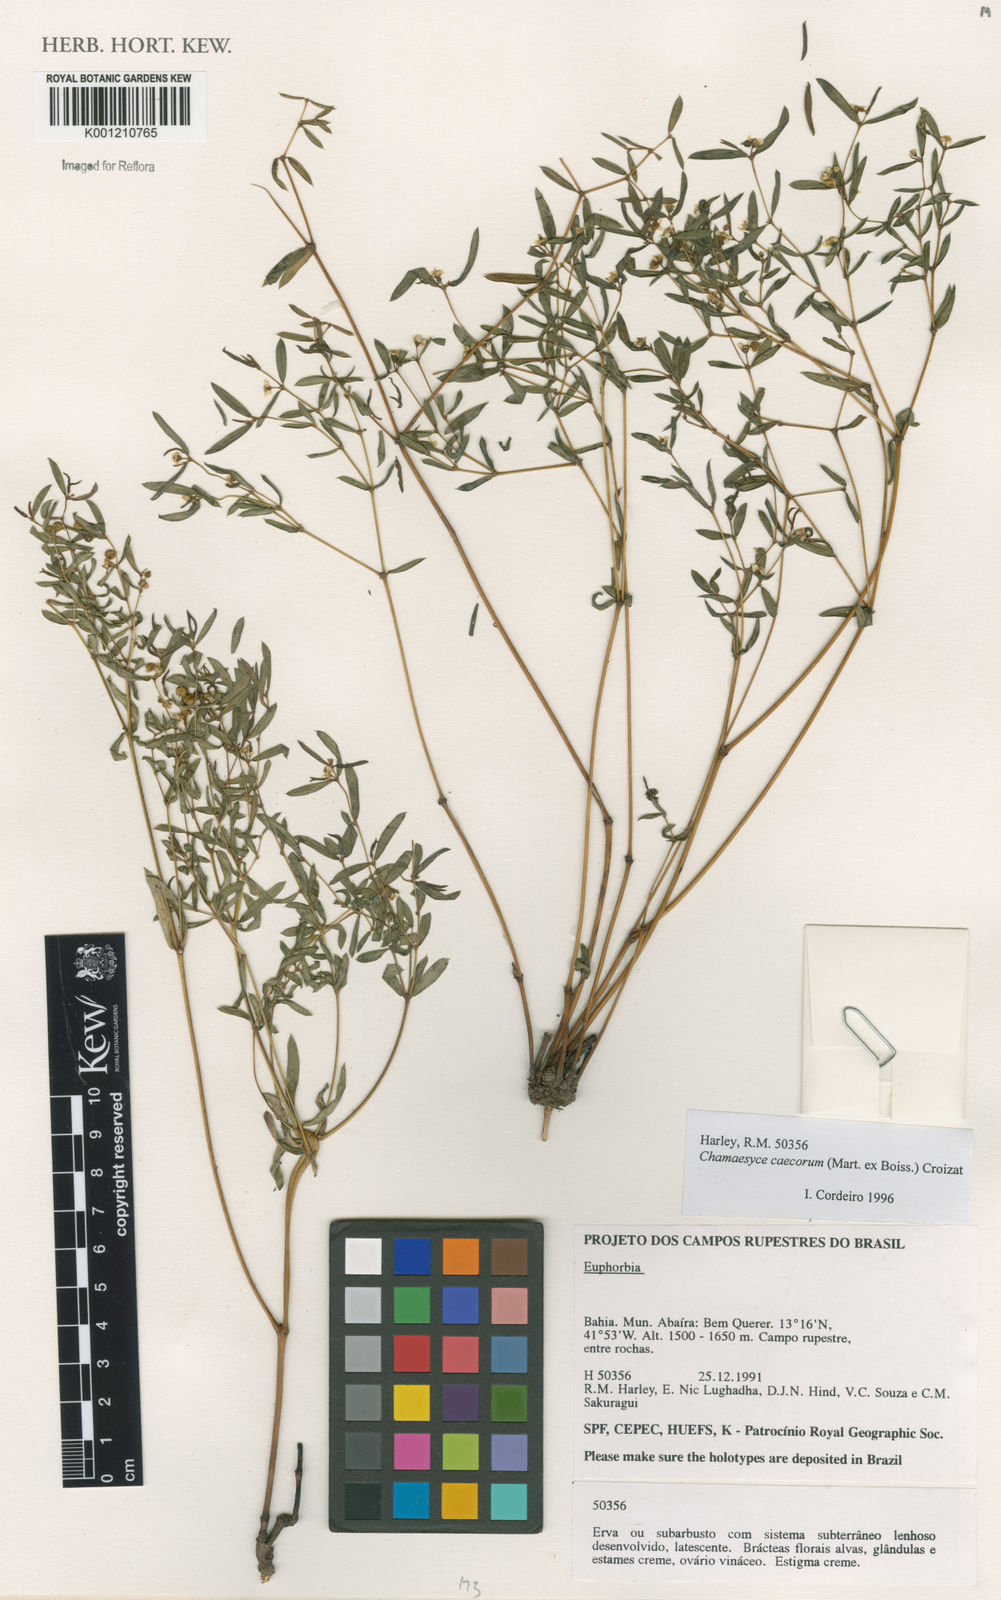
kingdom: Plantae
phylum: Tracheophyta
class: Magnoliopsida
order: Malpighiales
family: Euphorbiaceae
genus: Euphorbia
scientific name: Euphorbia potentilloides
